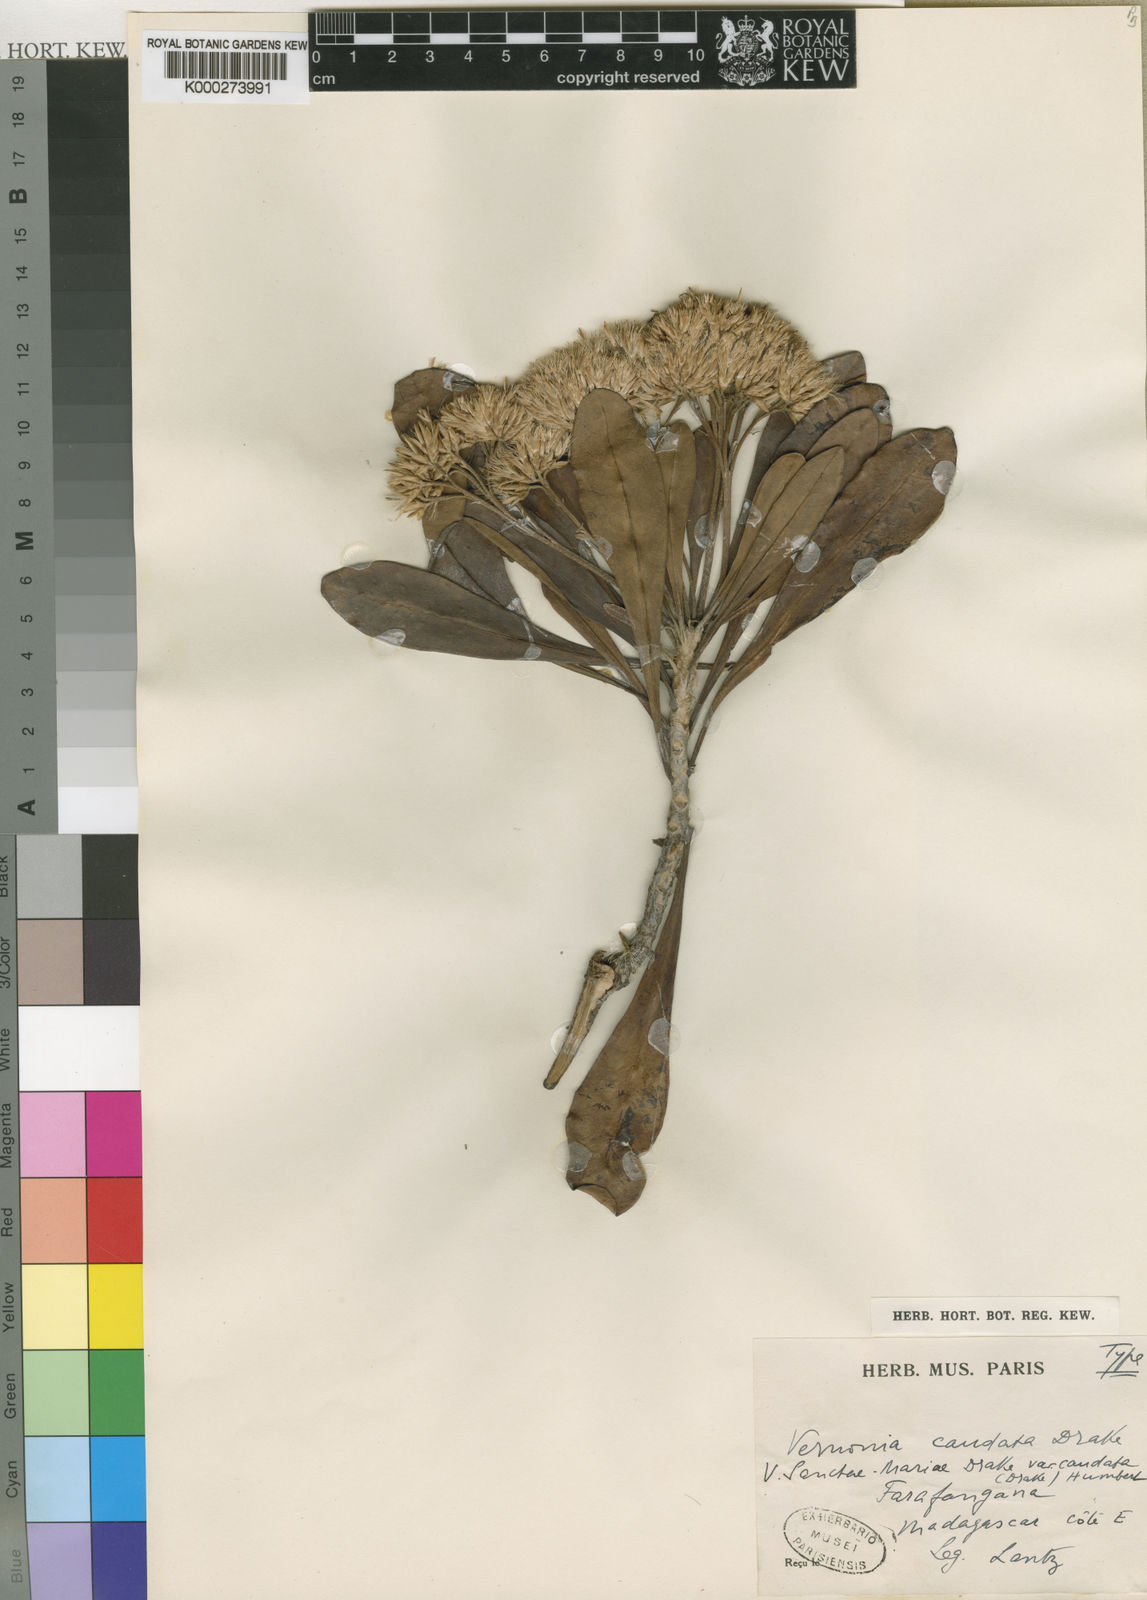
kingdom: Plantae
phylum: Tracheophyta
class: Magnoliopsida
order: Asterales
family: Asteraceae
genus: Vernoniopsis
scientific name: Vernoniopsis caudata
